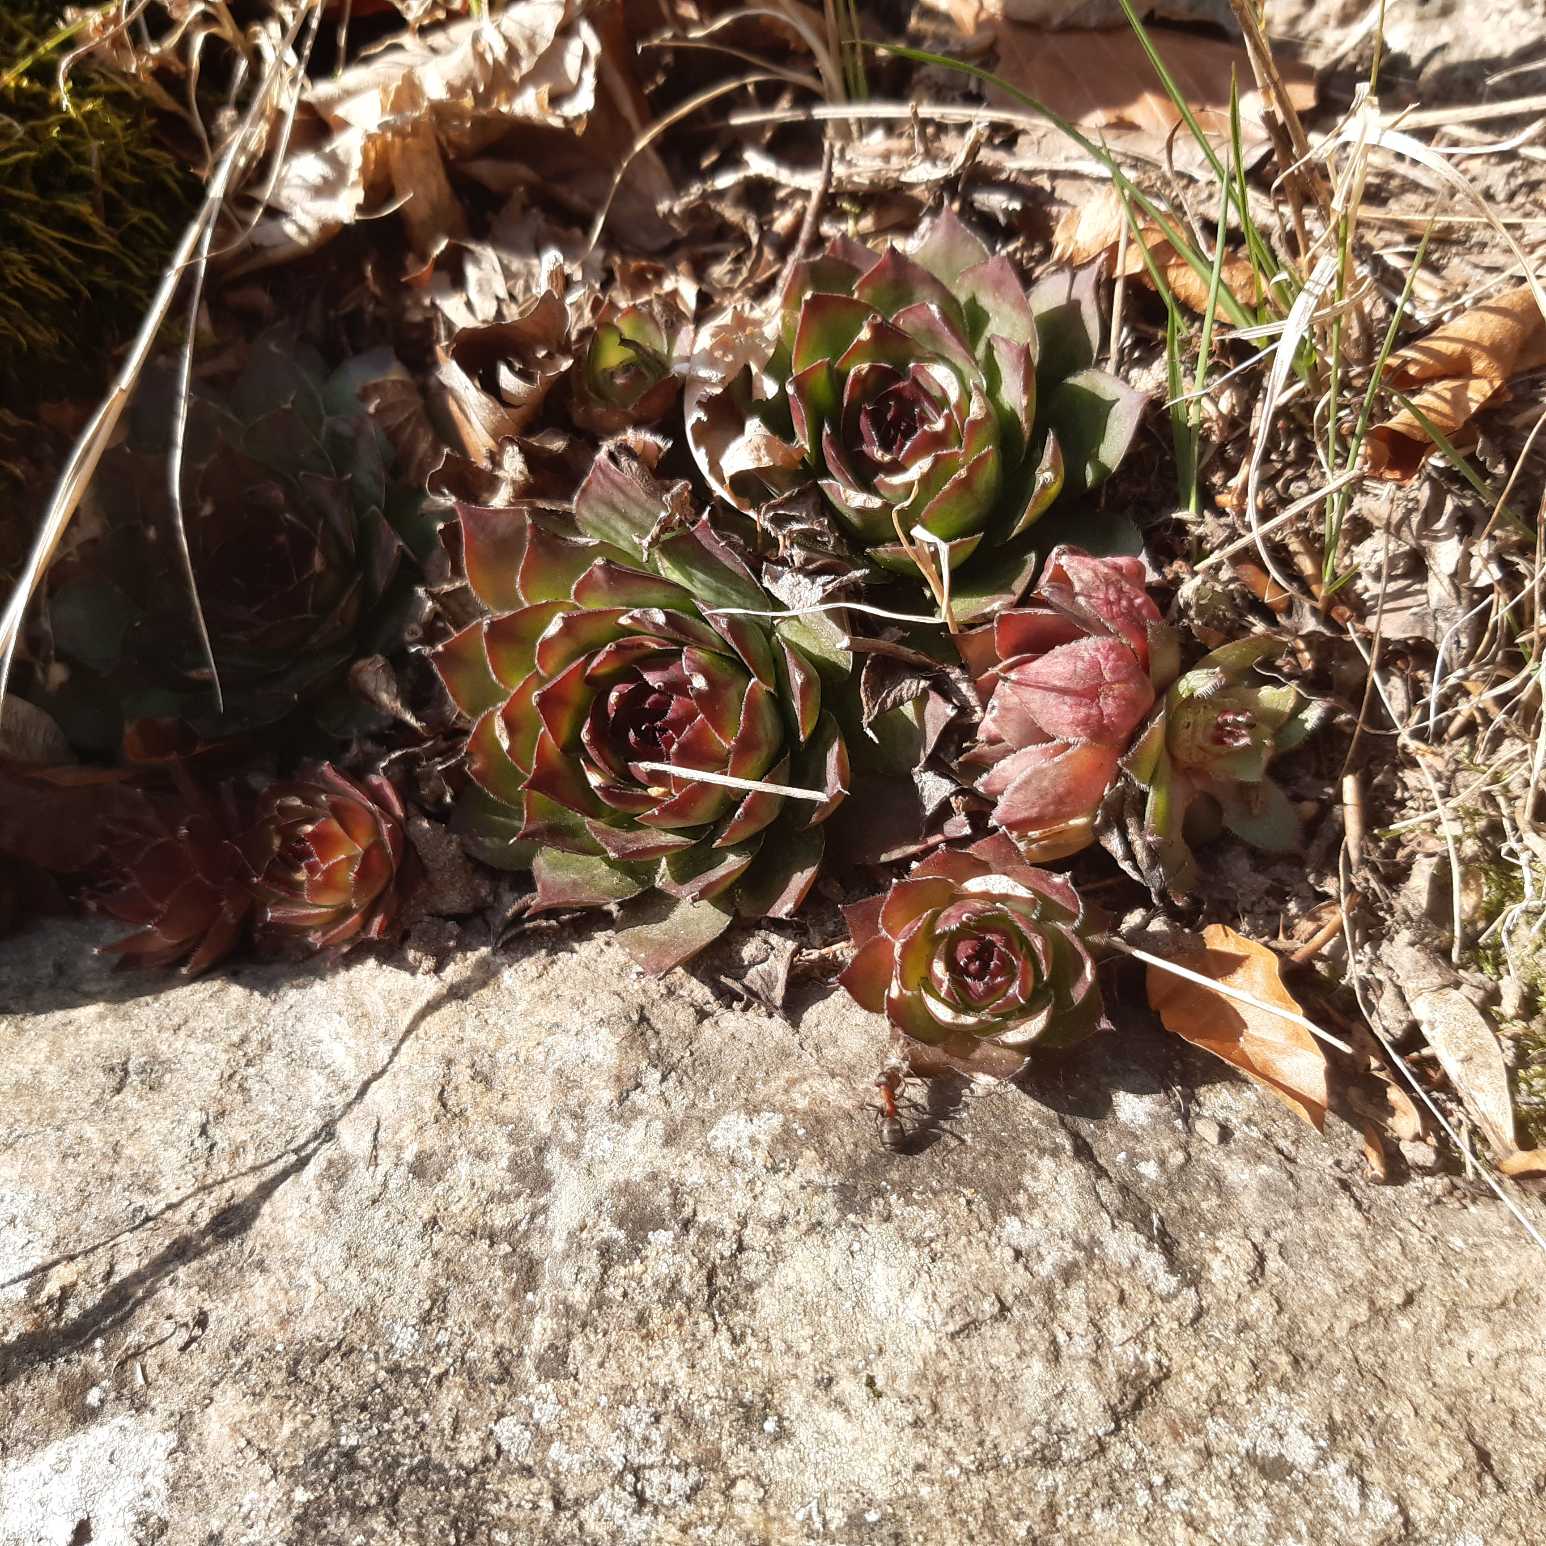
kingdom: Plantae
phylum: Tracheophyta
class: Magnoliopsida
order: Saxifragales
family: Crassulaceae
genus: Sempervivum
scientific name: Sempervivum tectorum
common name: Husløg
